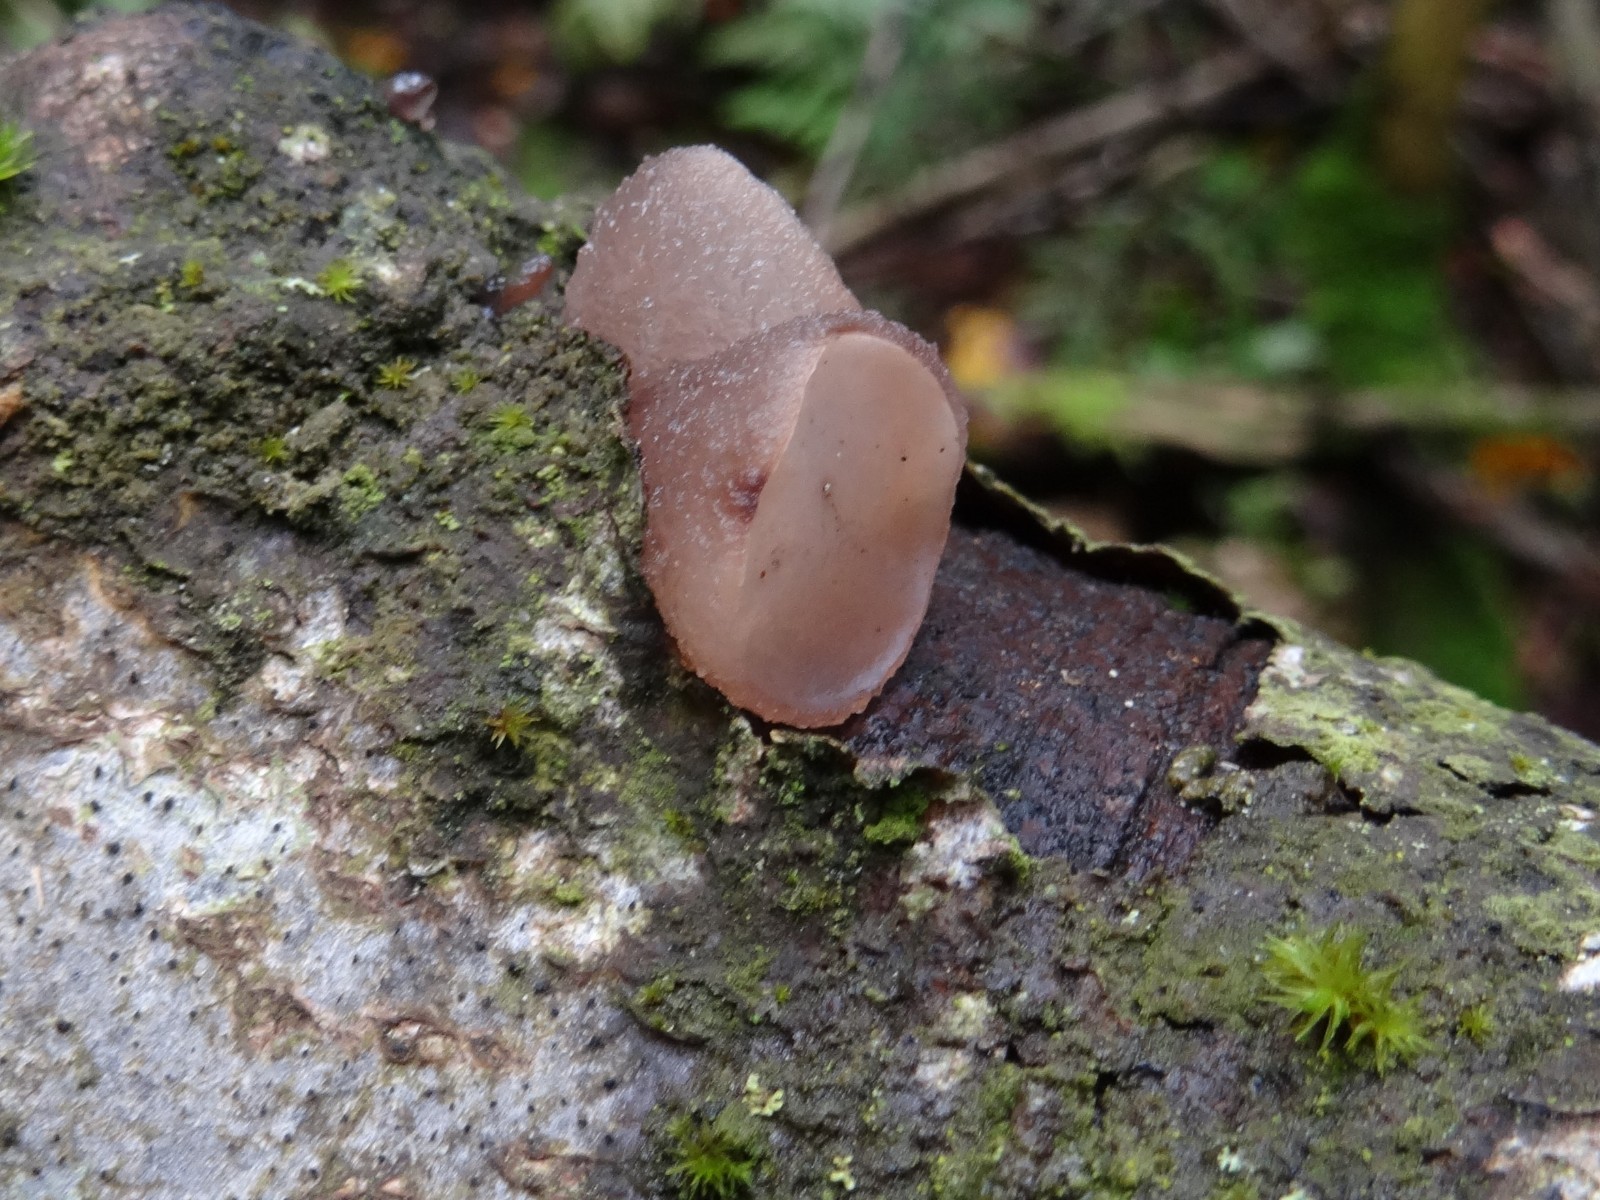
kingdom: Fungi
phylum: Ascomycota
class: Leotiomycetes
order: Helotiales
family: Gelatinodiscaceae
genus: Neobulgaria
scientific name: Neobulgaria pura
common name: bleg bævreskive
